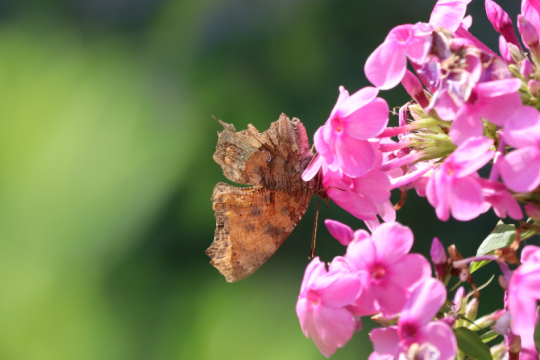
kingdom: Animalia
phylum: Arthropoda
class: Insecta
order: Lepidoptera
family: Nymphalidae
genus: Polygonia
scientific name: Polygonia comma
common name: Eastern Comma
